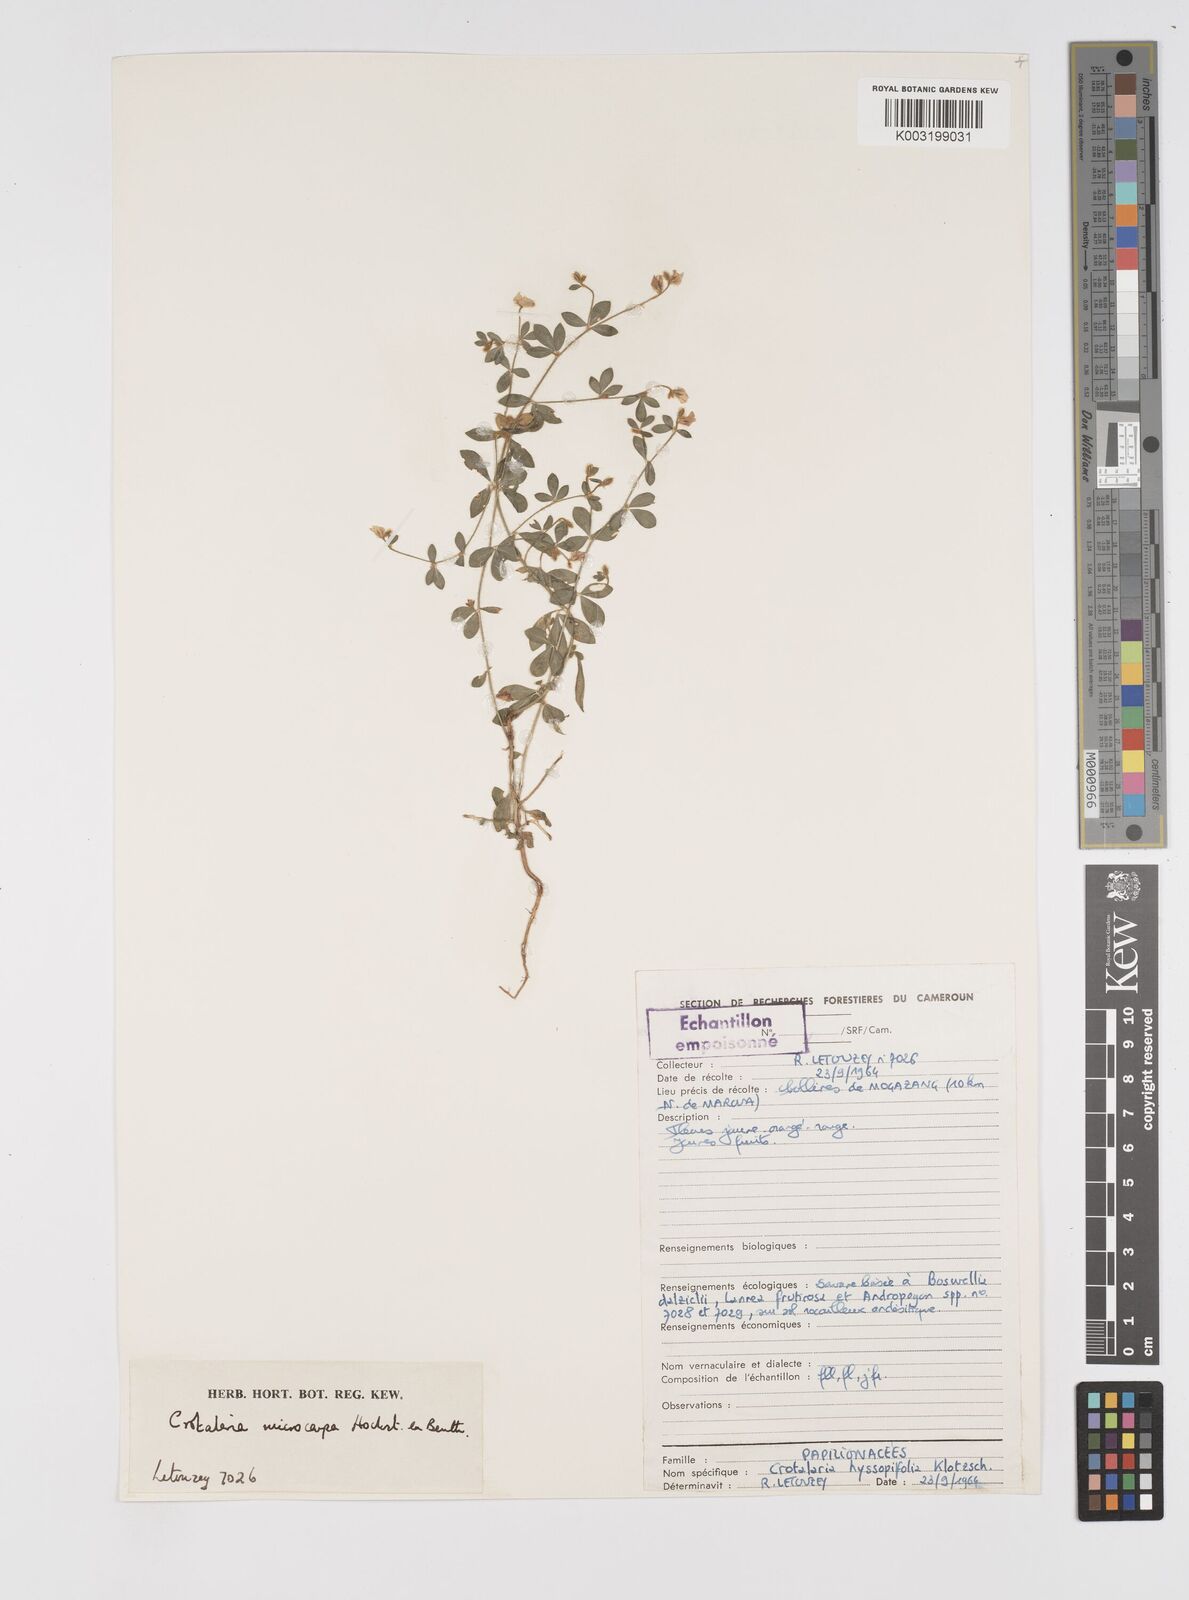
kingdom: Plantae
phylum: Tracheophyta
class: Magnoliopsida
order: Fabales
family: Fabaceae
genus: Crotalaria
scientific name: Crotalaria microcarpa
